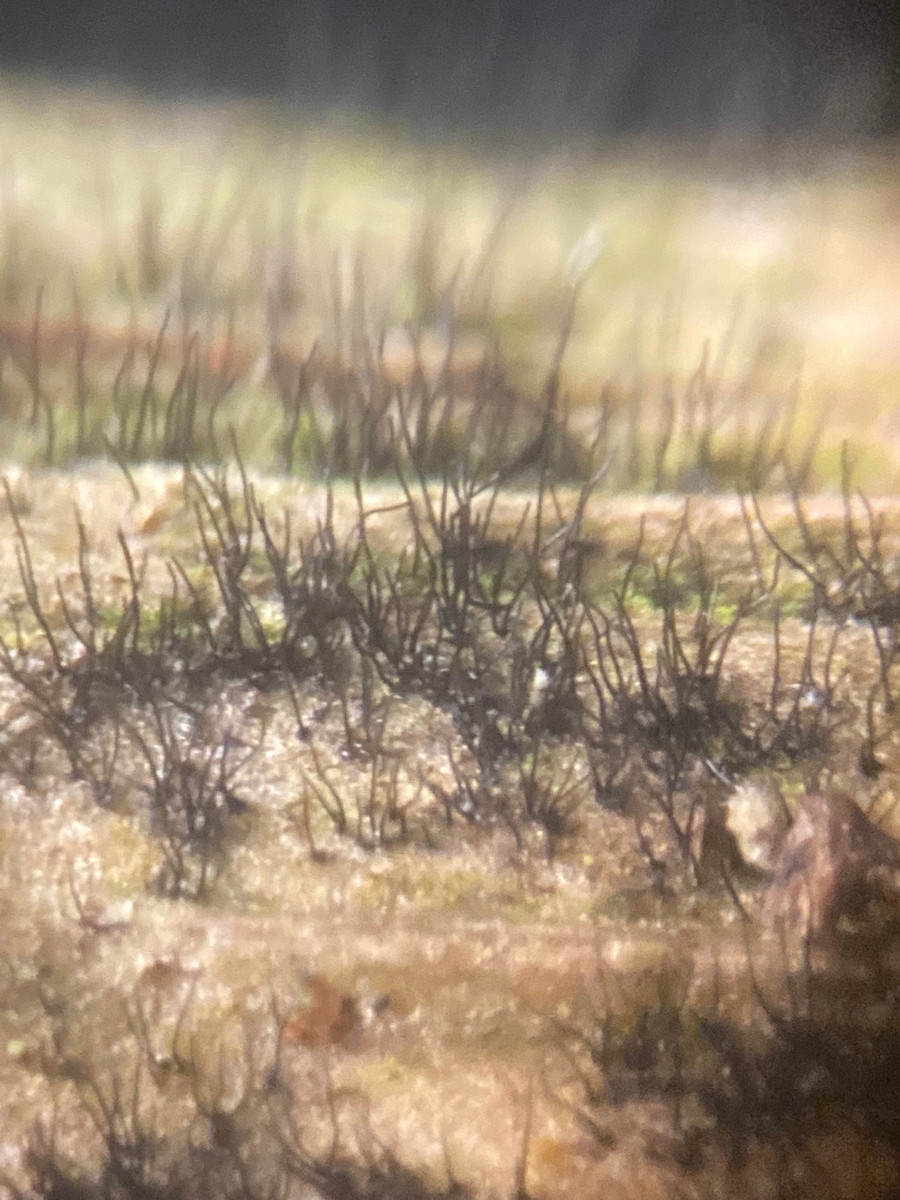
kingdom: Fungi
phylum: Ascomycota
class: Dothideomycetes
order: Pleosporales
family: Massarinaceae
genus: Helminthosporium
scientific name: Helminthosporium velutinum
